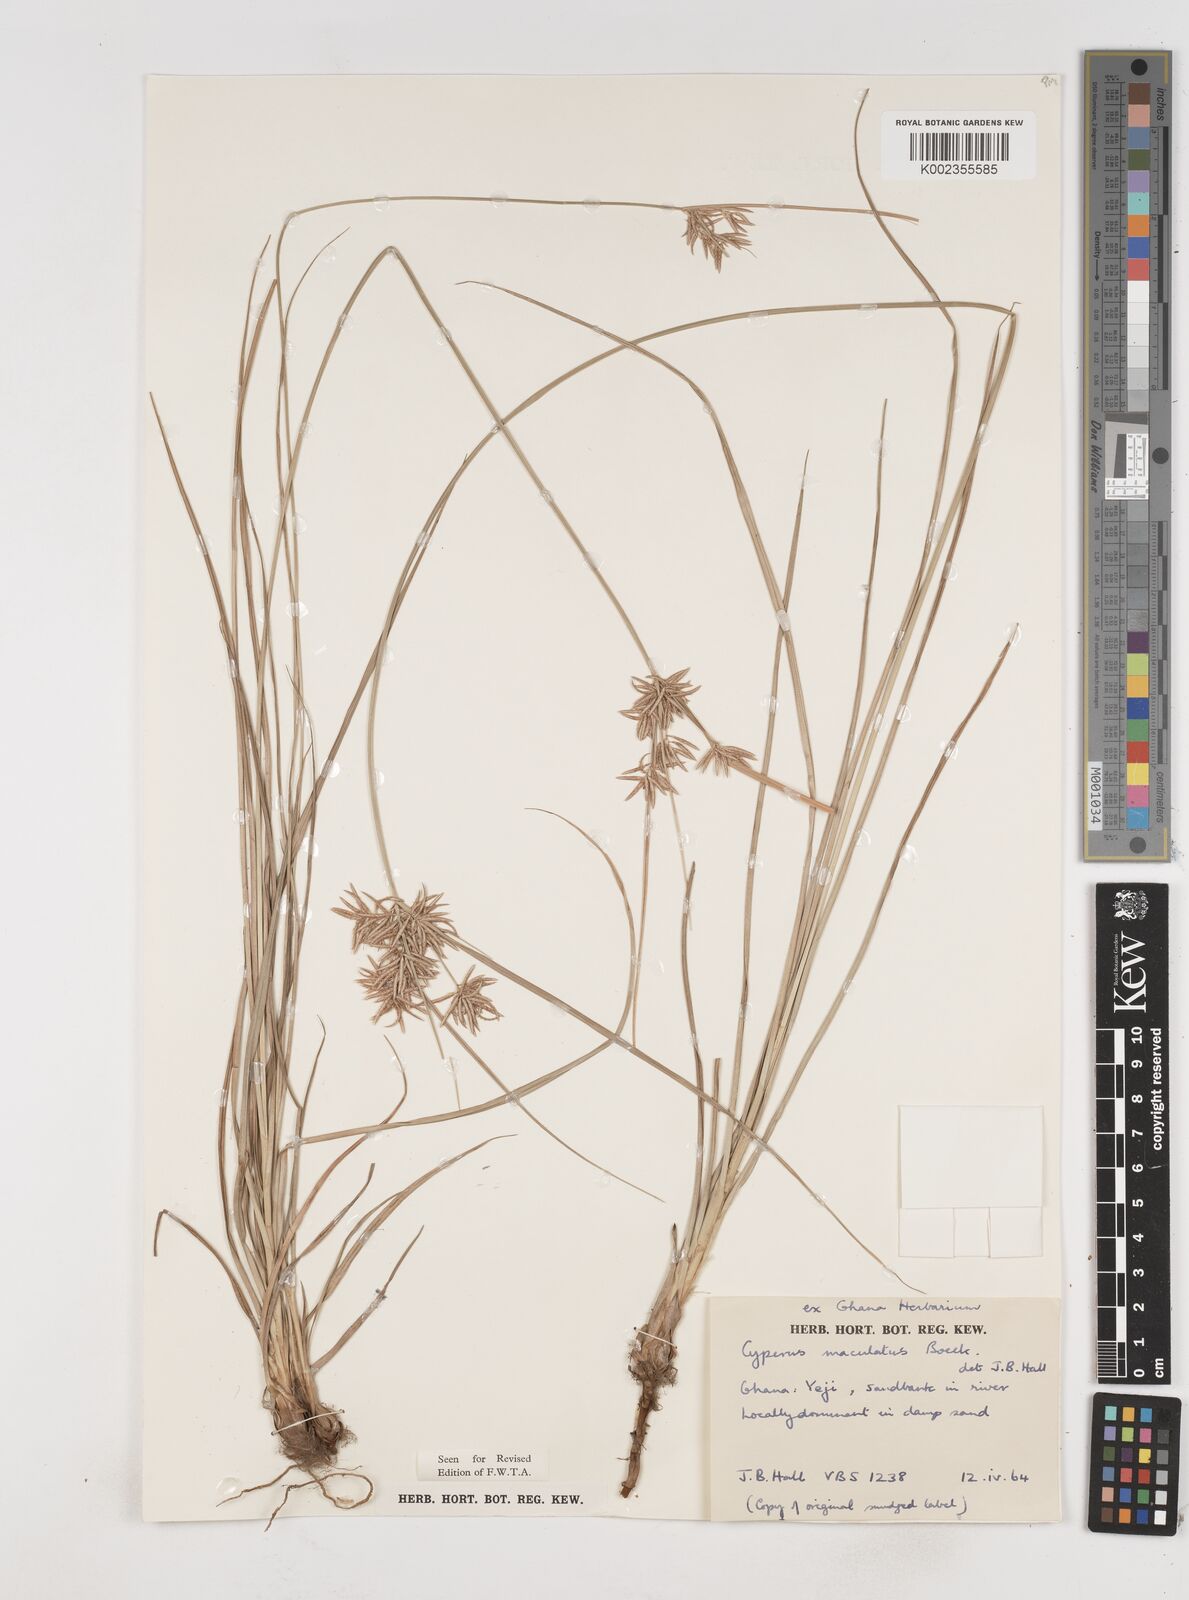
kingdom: Plantae
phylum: Tracheophyta
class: Liliopsida
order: Poales
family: Cyperaceae
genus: Cyperus
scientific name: Cyperus maculatus
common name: Maculated sedge
